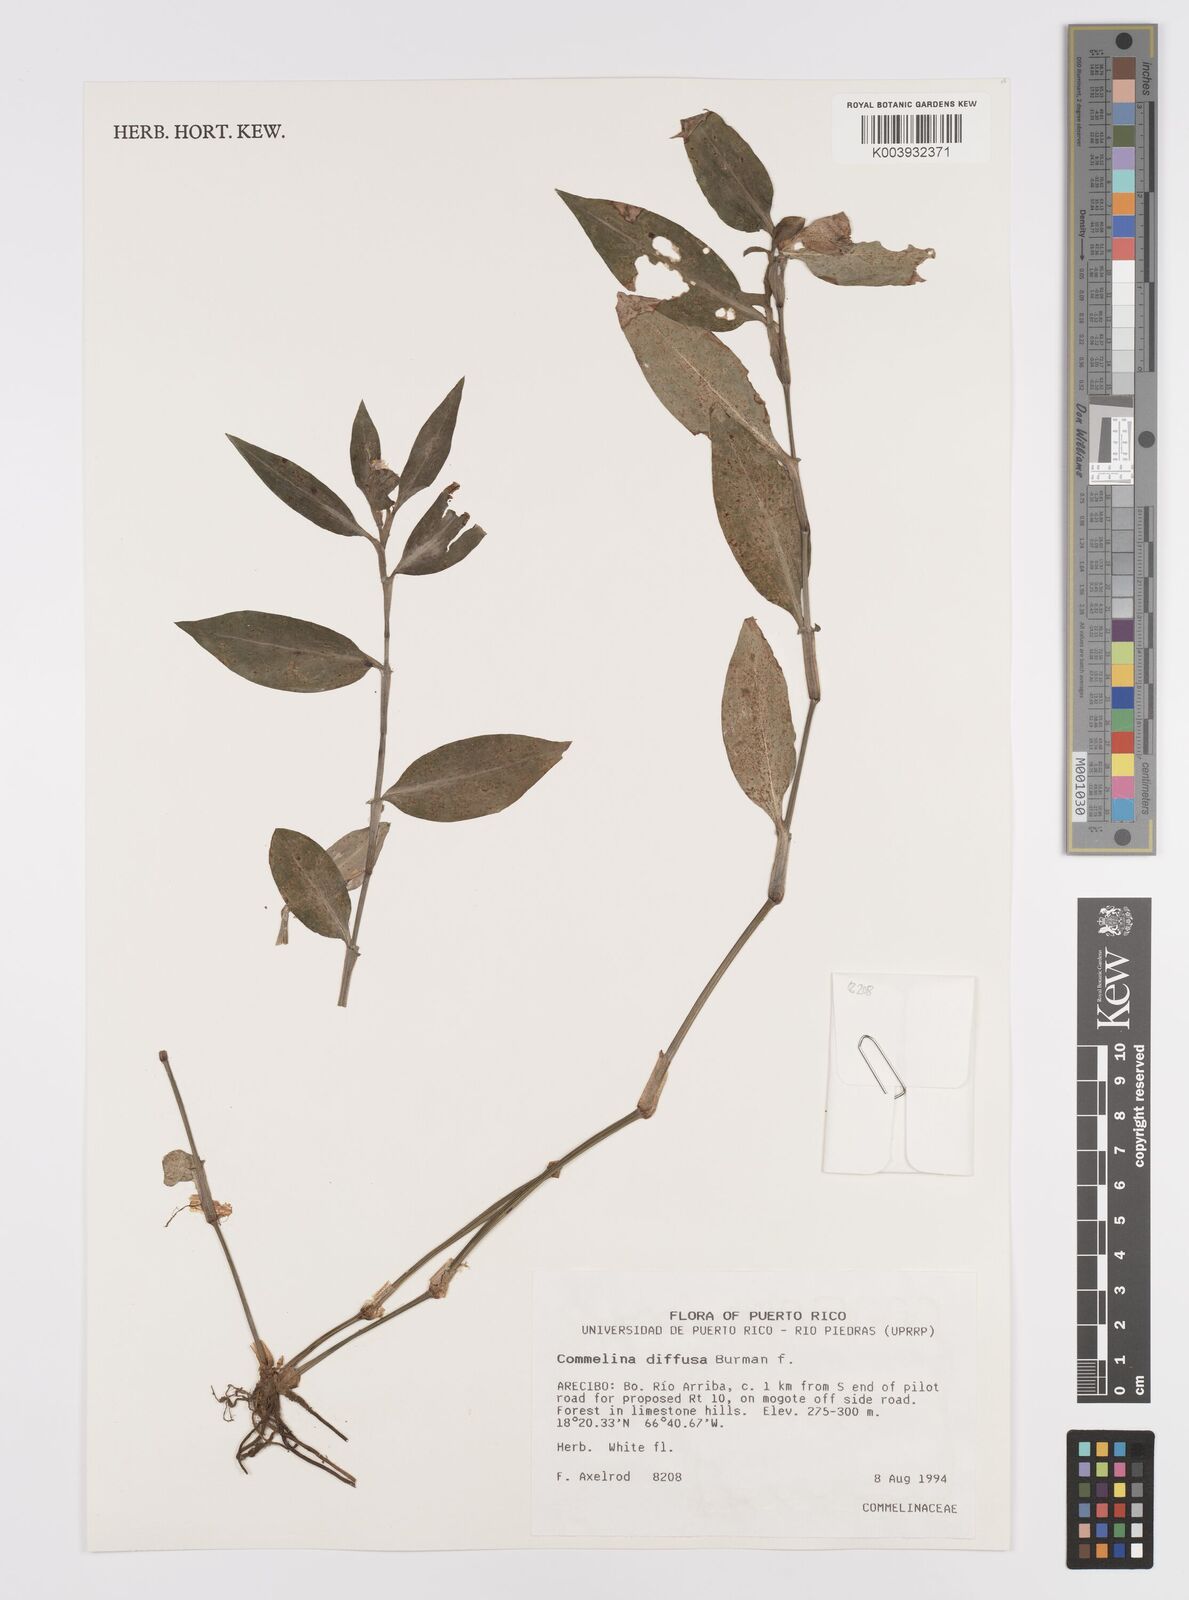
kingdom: Plantae
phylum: Tracheophyta
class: Liliopsida
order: Commelinales
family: Commelinaceae
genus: Commelina
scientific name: Commelina diffusa
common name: Climbing dayflower
